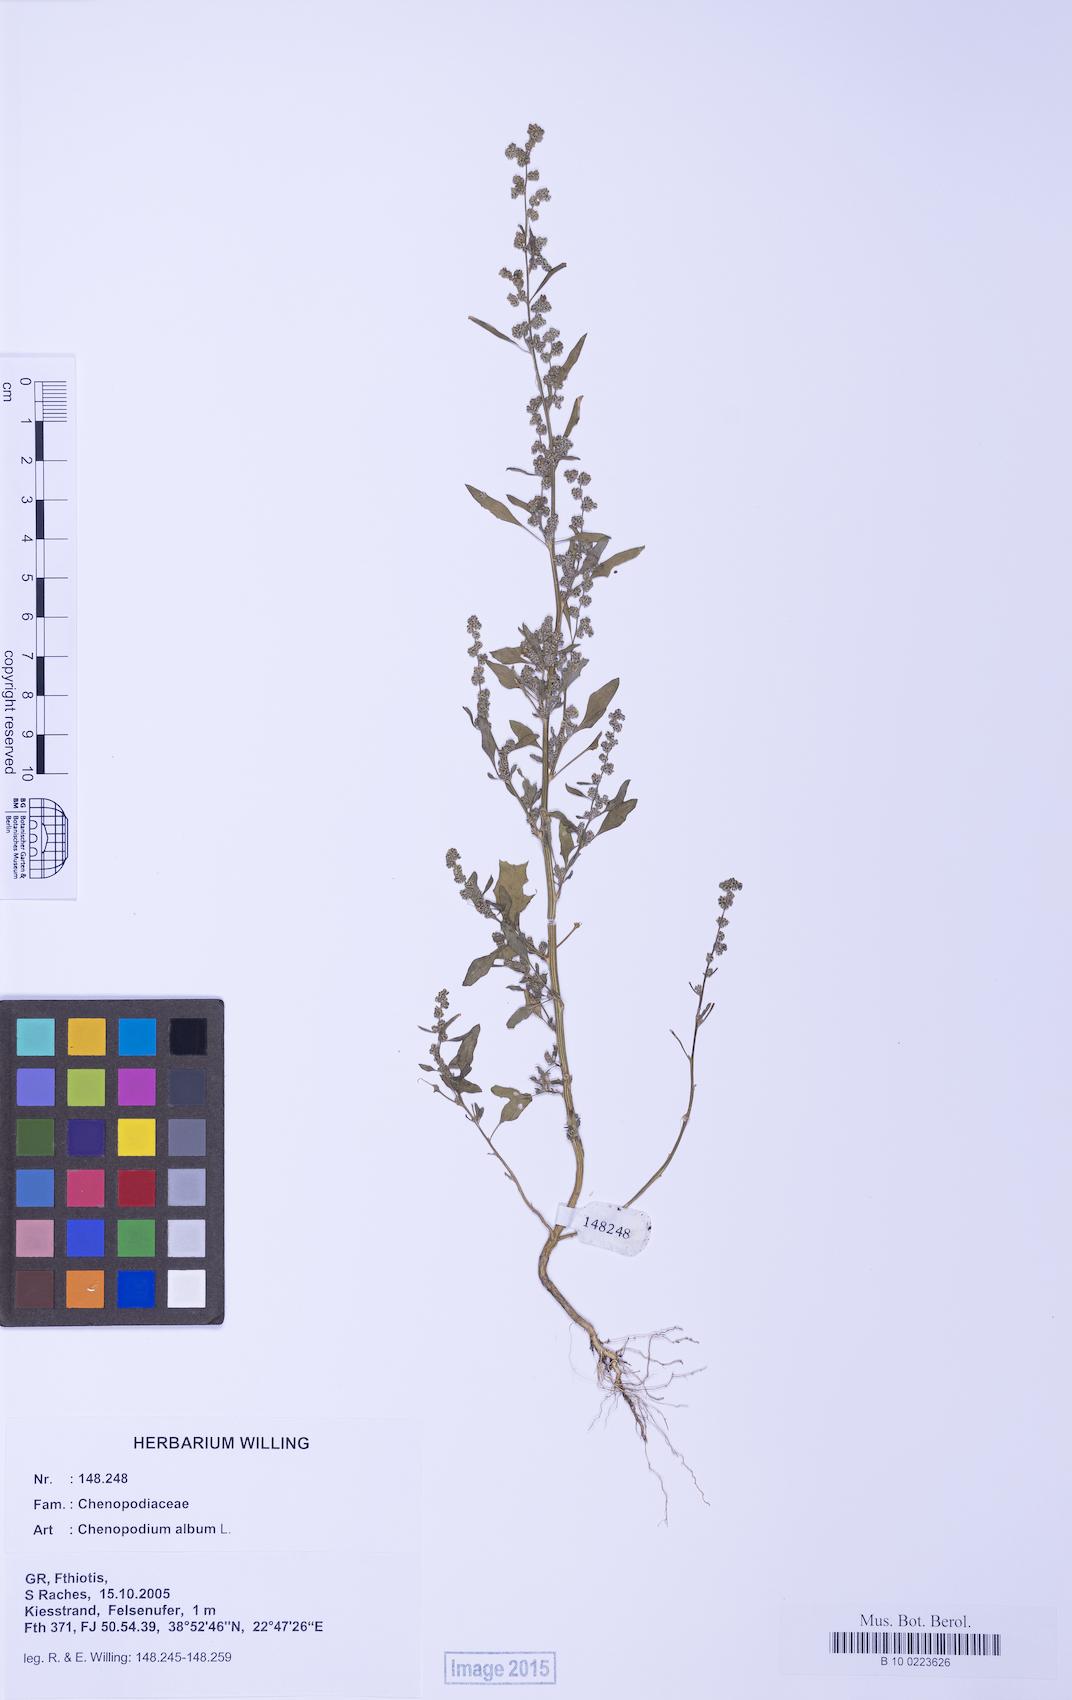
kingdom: Plantae
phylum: Tracheophyta
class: Magnoliopsida
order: Caryophyllales
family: Amaranthaceae
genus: Chenopodium
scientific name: Chenopodium album
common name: Fat-hen
